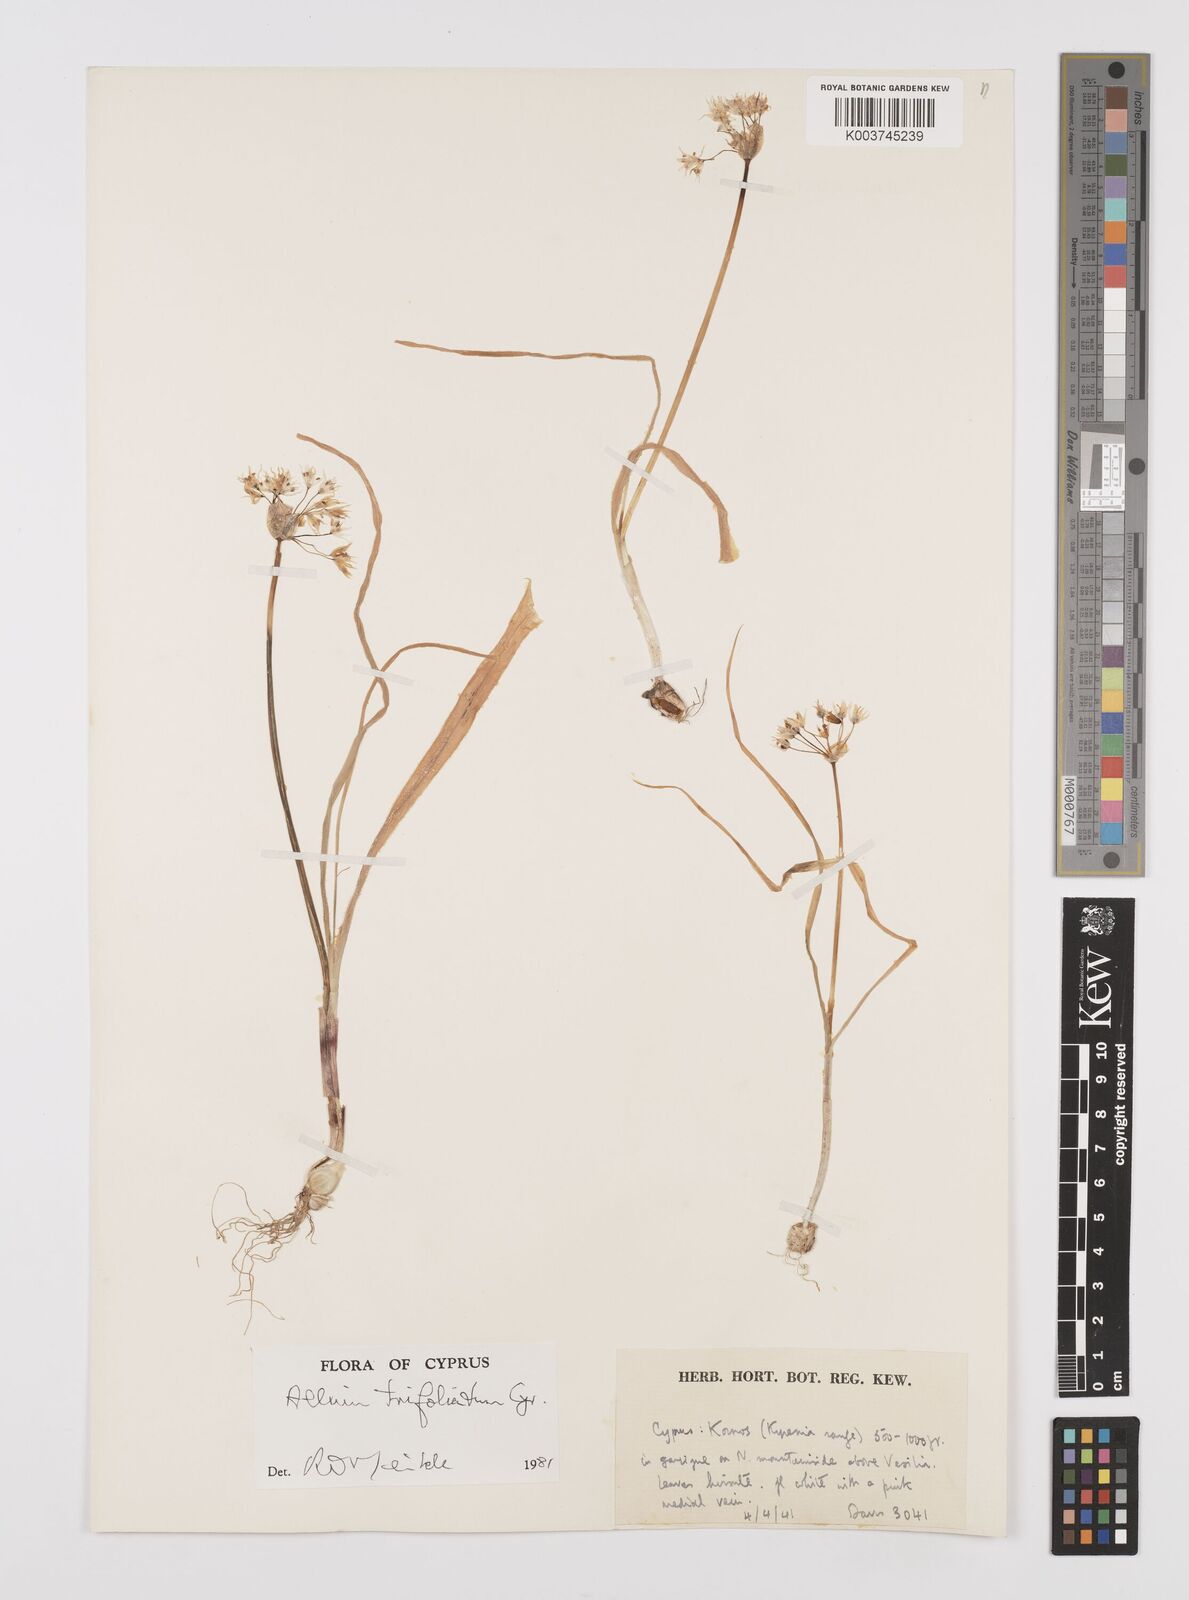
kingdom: Plantae
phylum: Tracheophyta
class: Liliopsida
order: Asparagales
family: Amaryllidaceae
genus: Allium
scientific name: Allium trifoliatum
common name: Pink garlic
